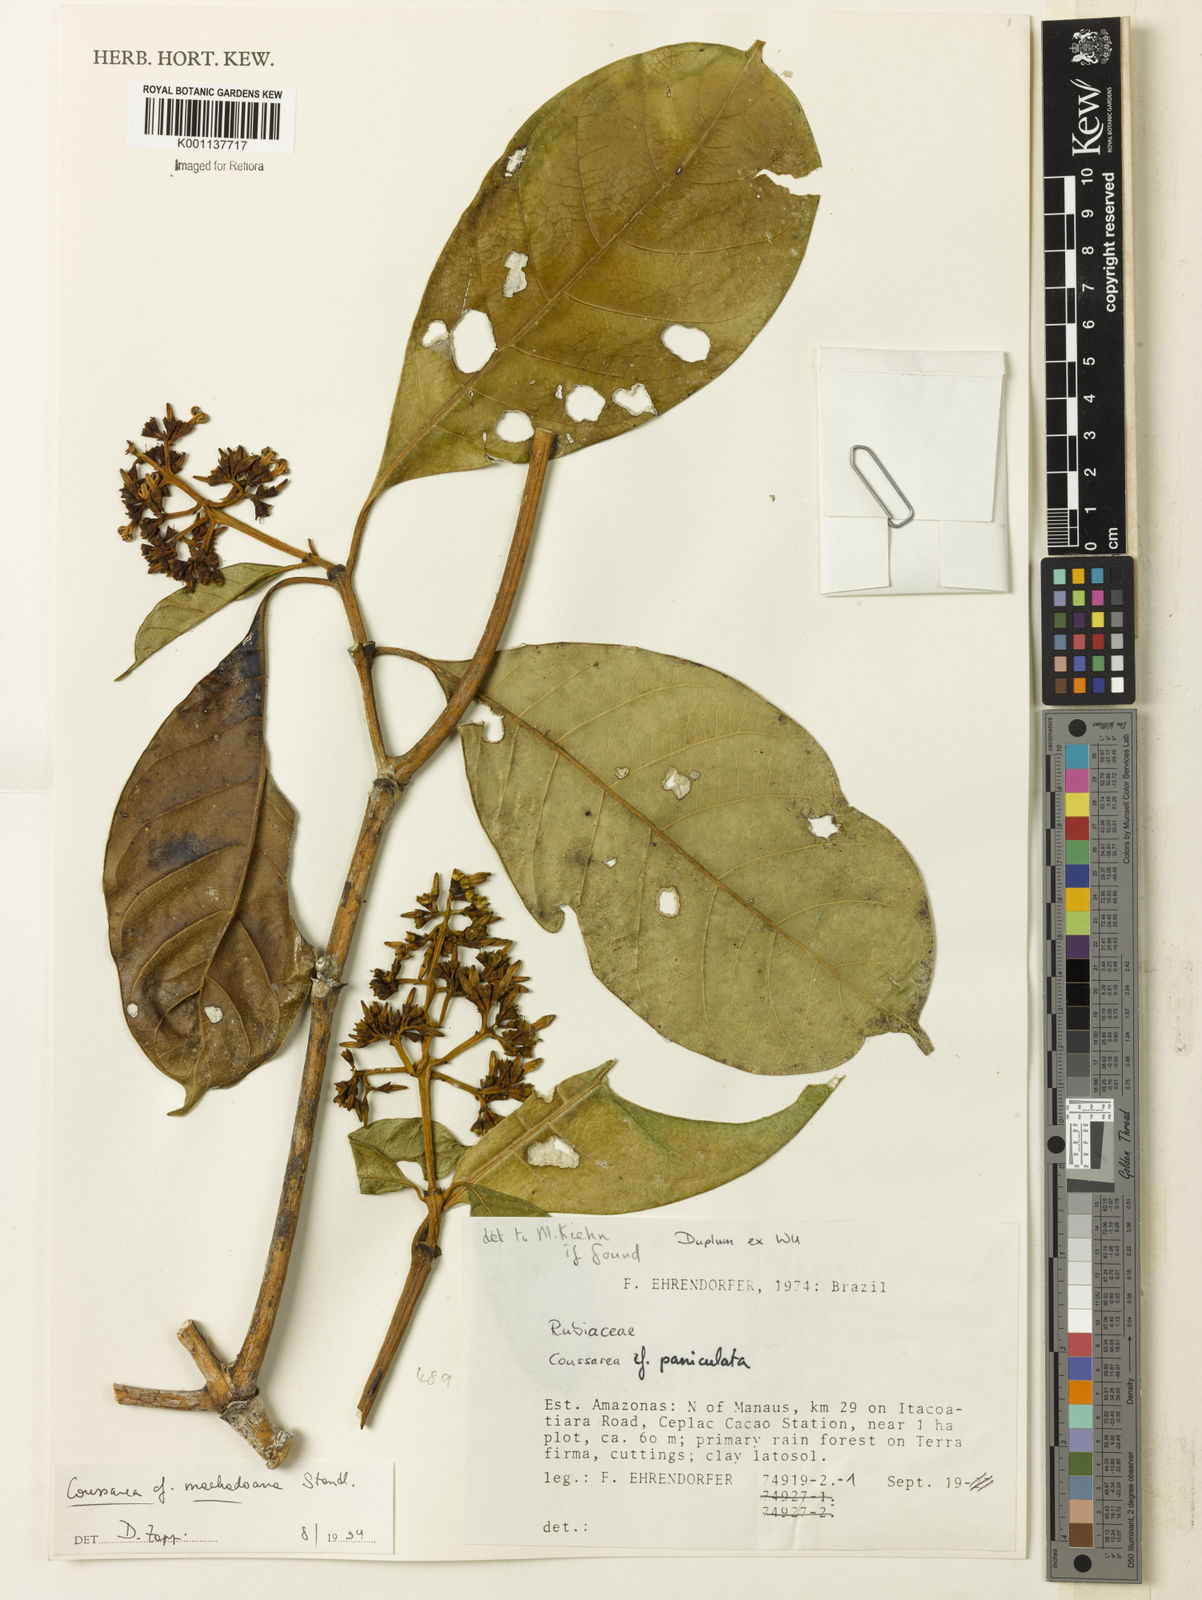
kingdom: Plantae
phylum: Tracheophyta
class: Magnoliopsida
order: Gentianales
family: Rubiaceae
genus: Coussarea
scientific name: Coussarea machadoana
